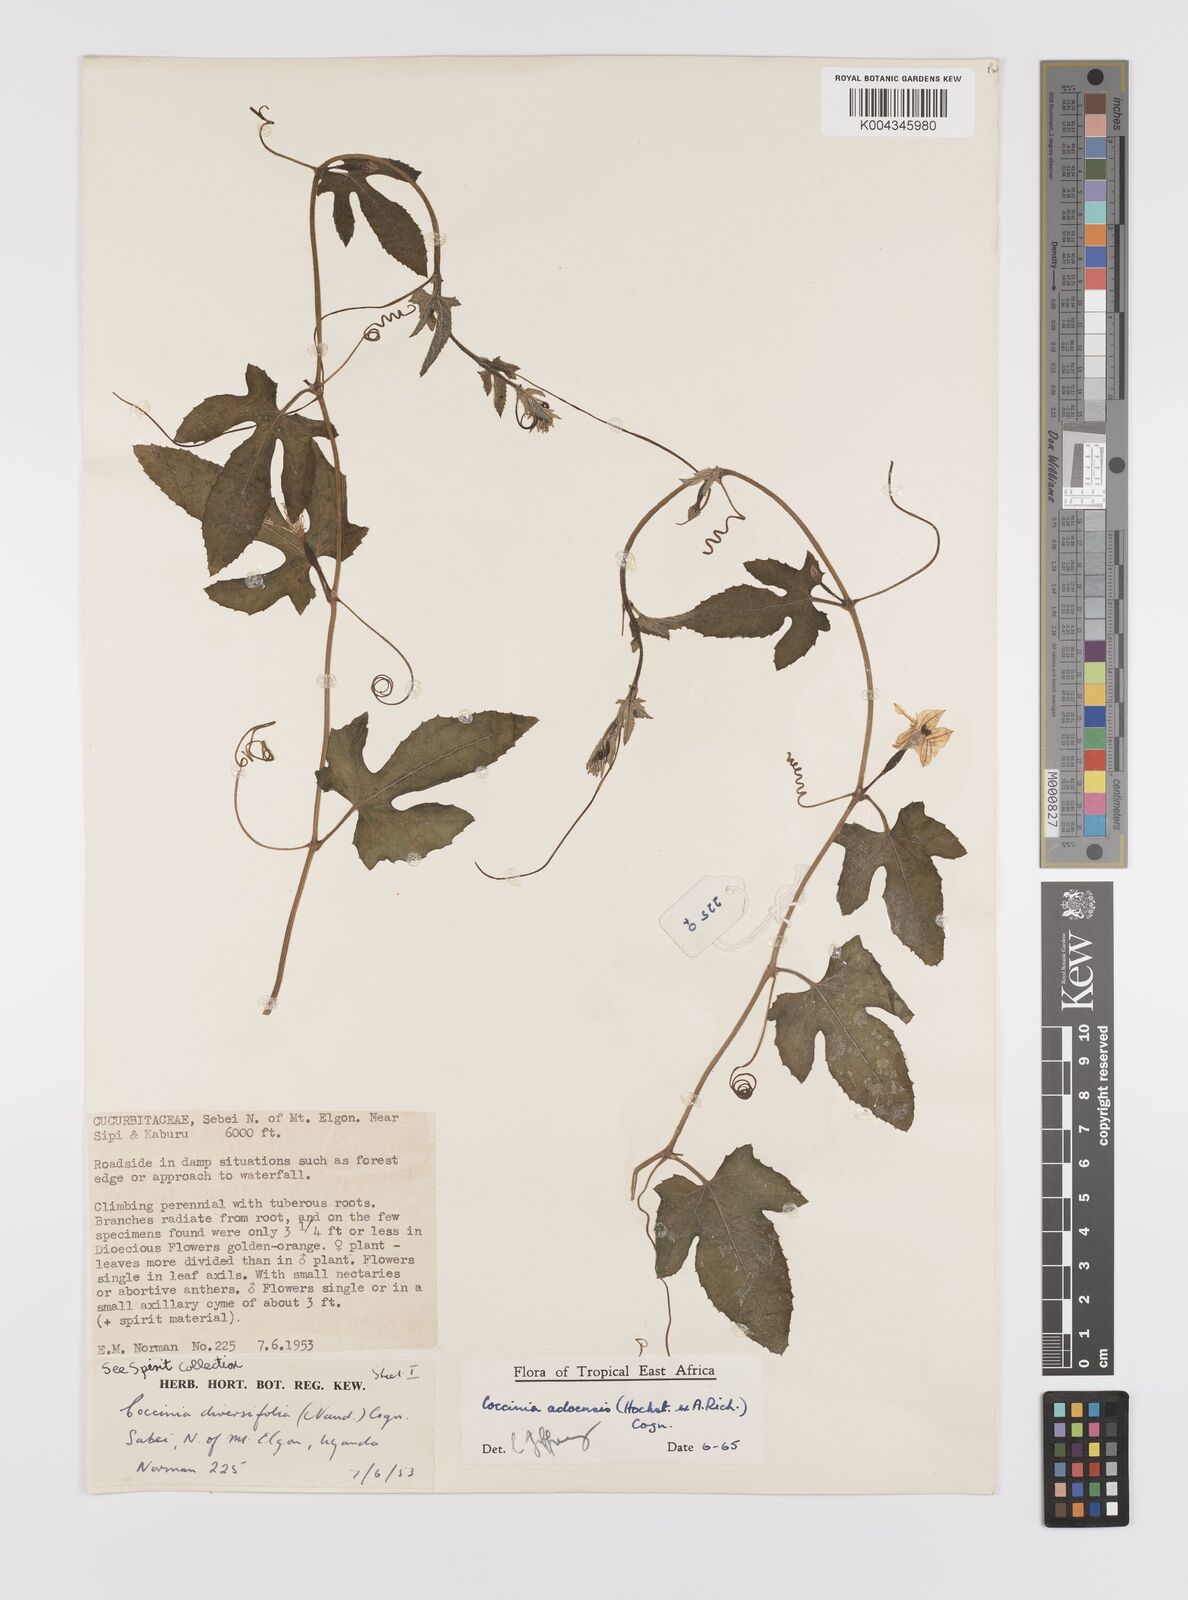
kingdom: Plantae
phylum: Tracheophyta
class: Magnoliopsida
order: Cucurbitales
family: Cucurbitaceae
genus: Coccinia
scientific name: Coccinia adoensis
